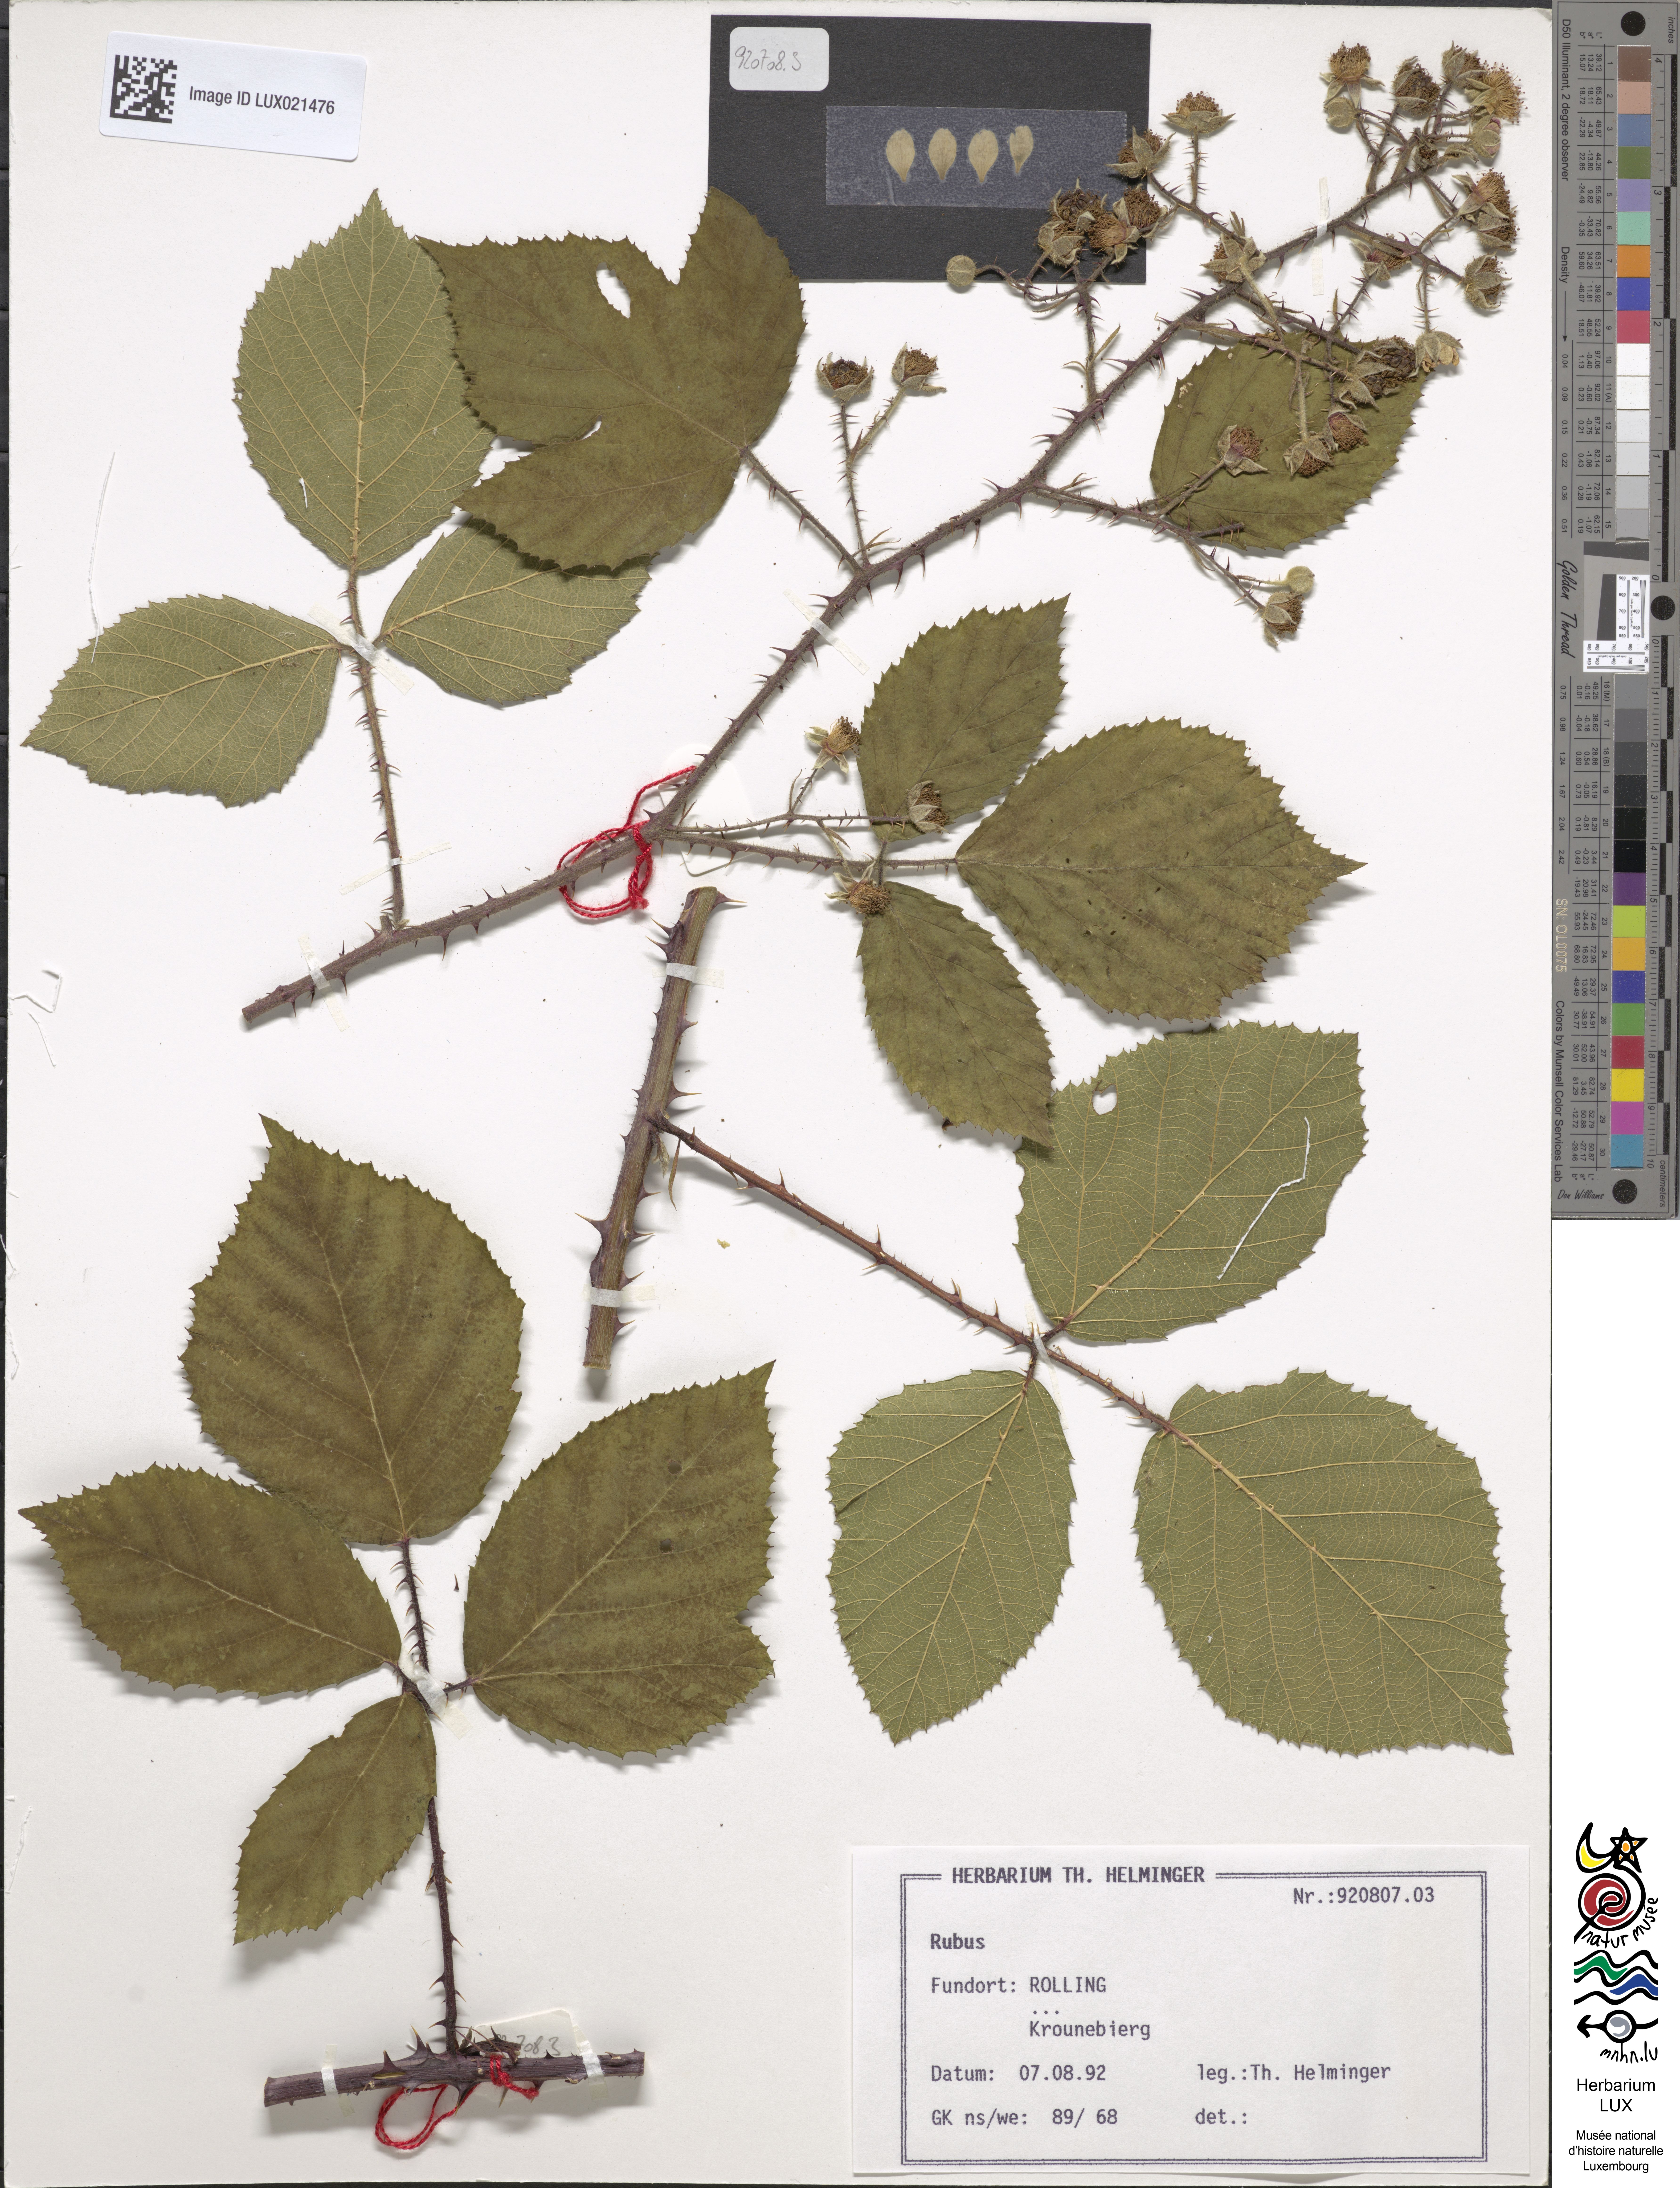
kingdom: Plantae
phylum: Tracheophyta
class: Magnoliopsida
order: Rosales
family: Rosaceae
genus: Rubus
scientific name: Rubus macrostemonides
